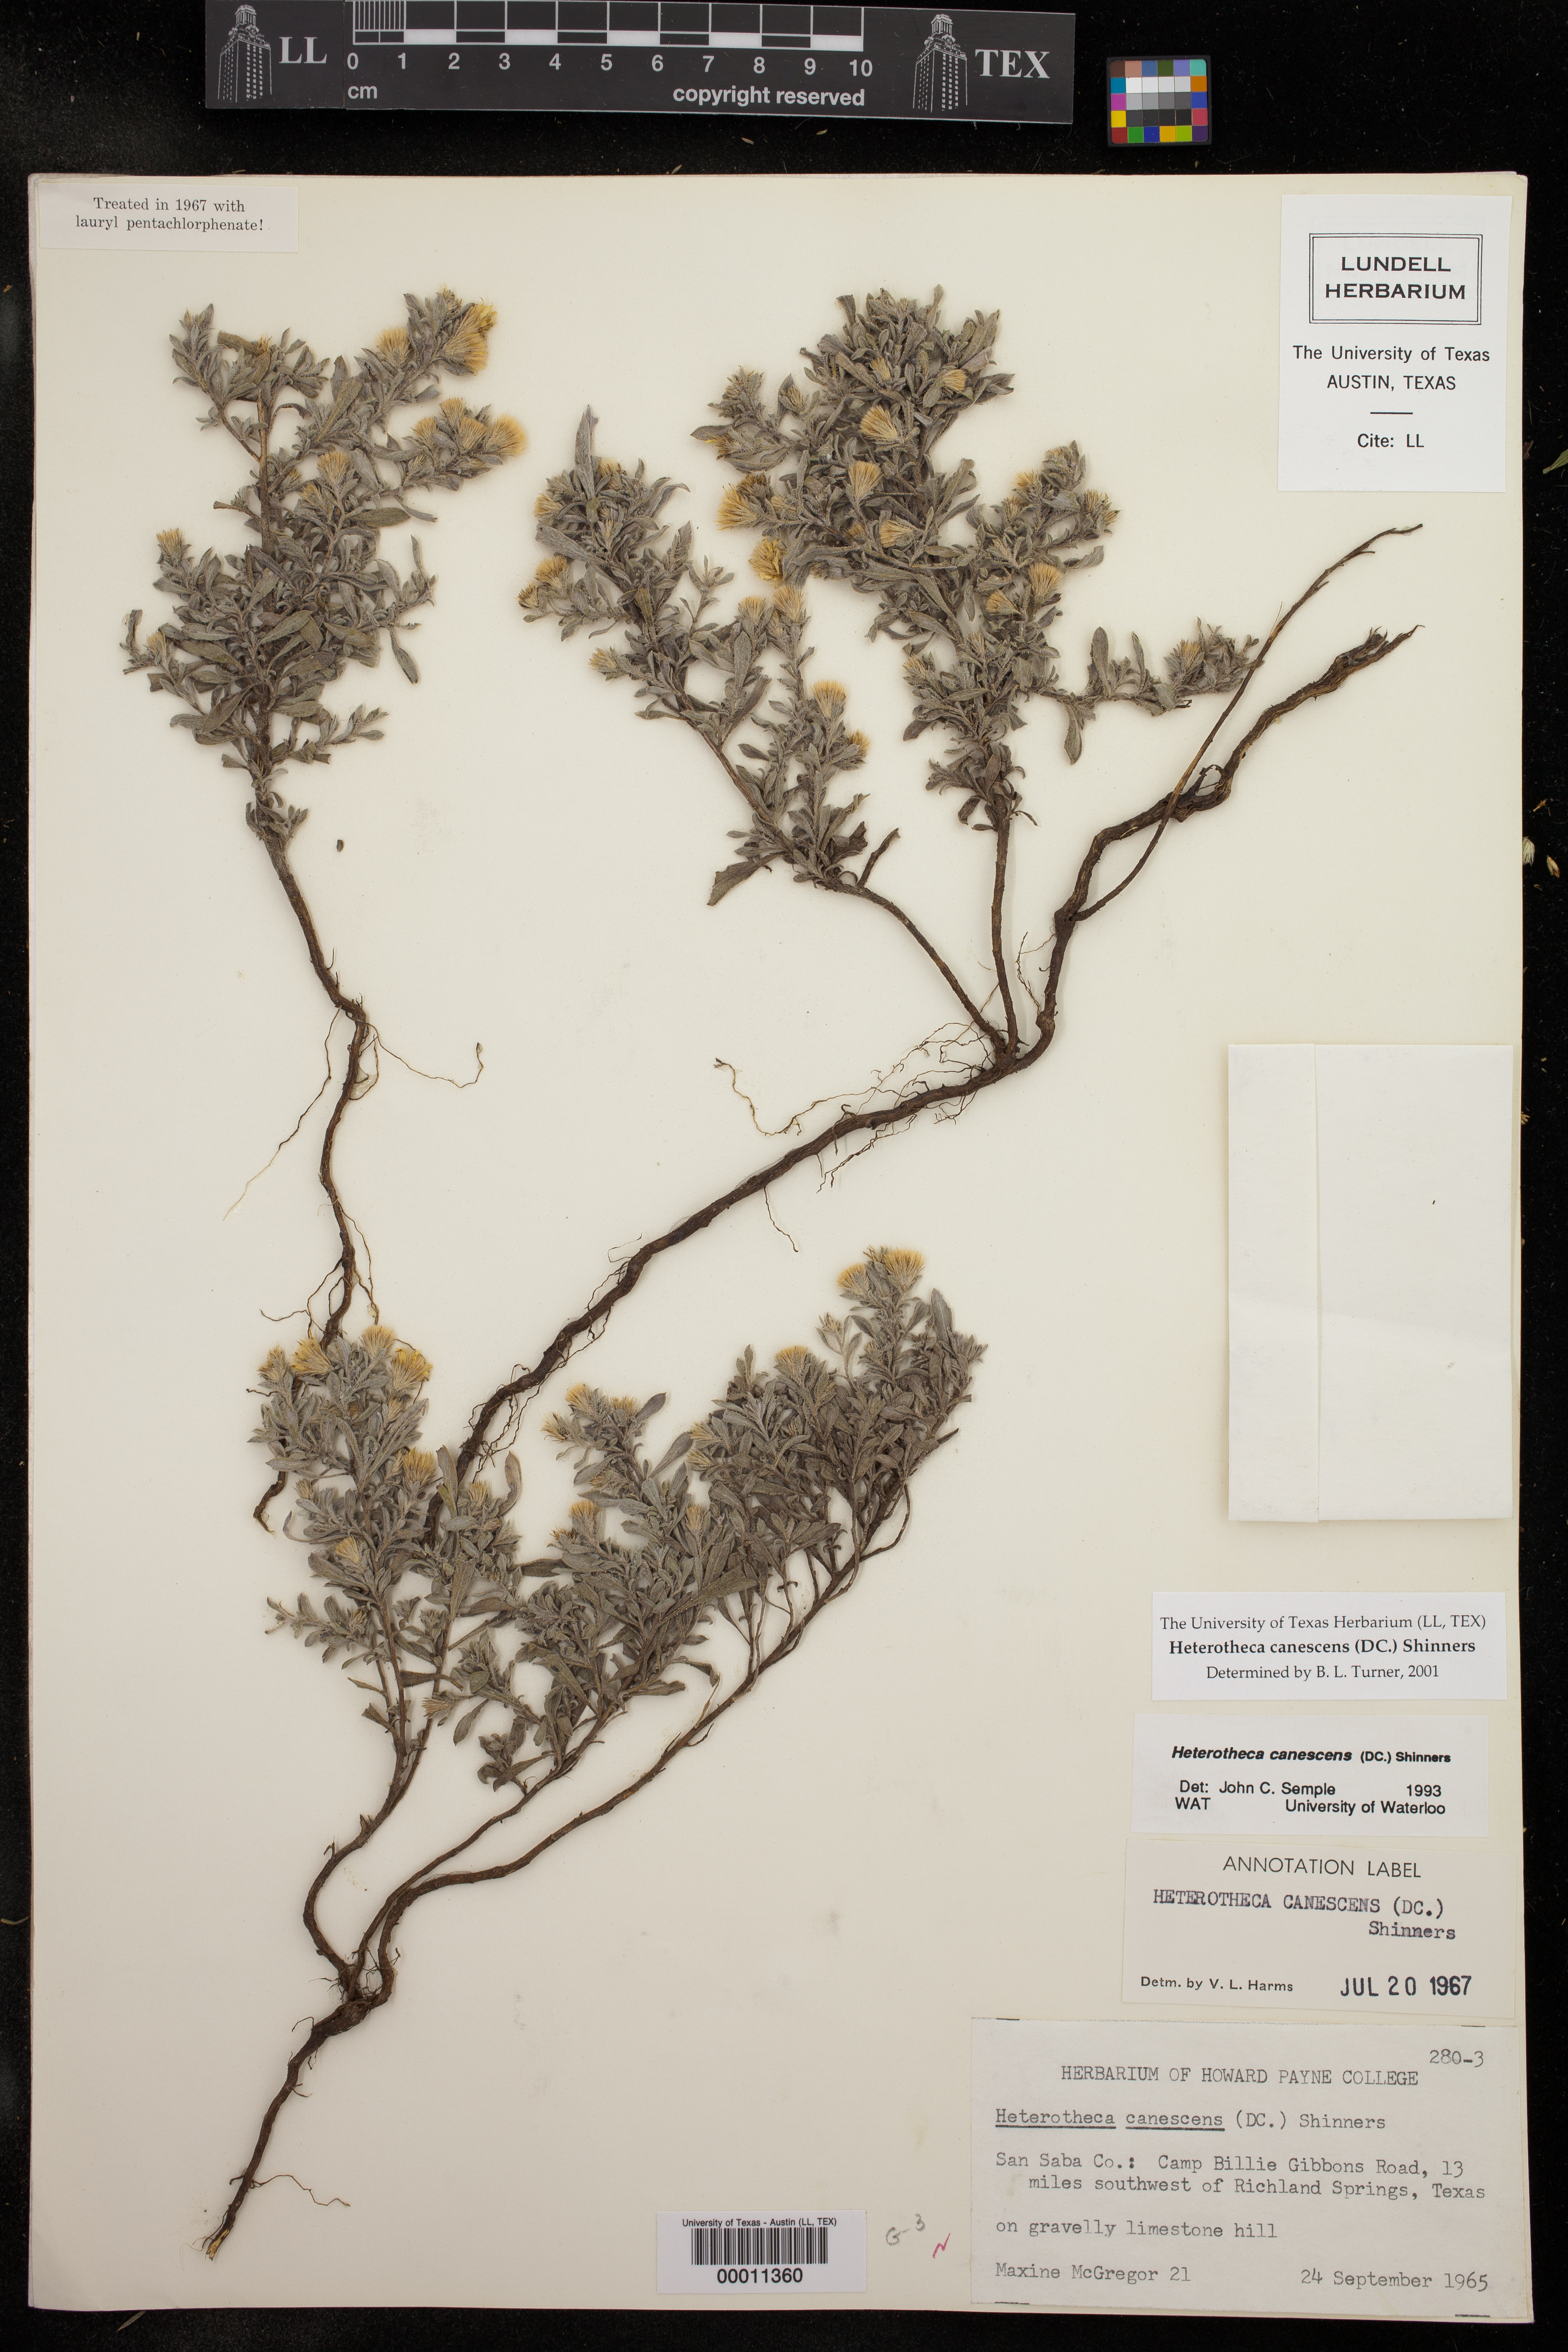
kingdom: Plantae
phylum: Tracheophyta
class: Magnoliopsida
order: Asterales
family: Asteraceae
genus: Heterotheca
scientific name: Heterotheca canescens
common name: Hoary golden-aster
